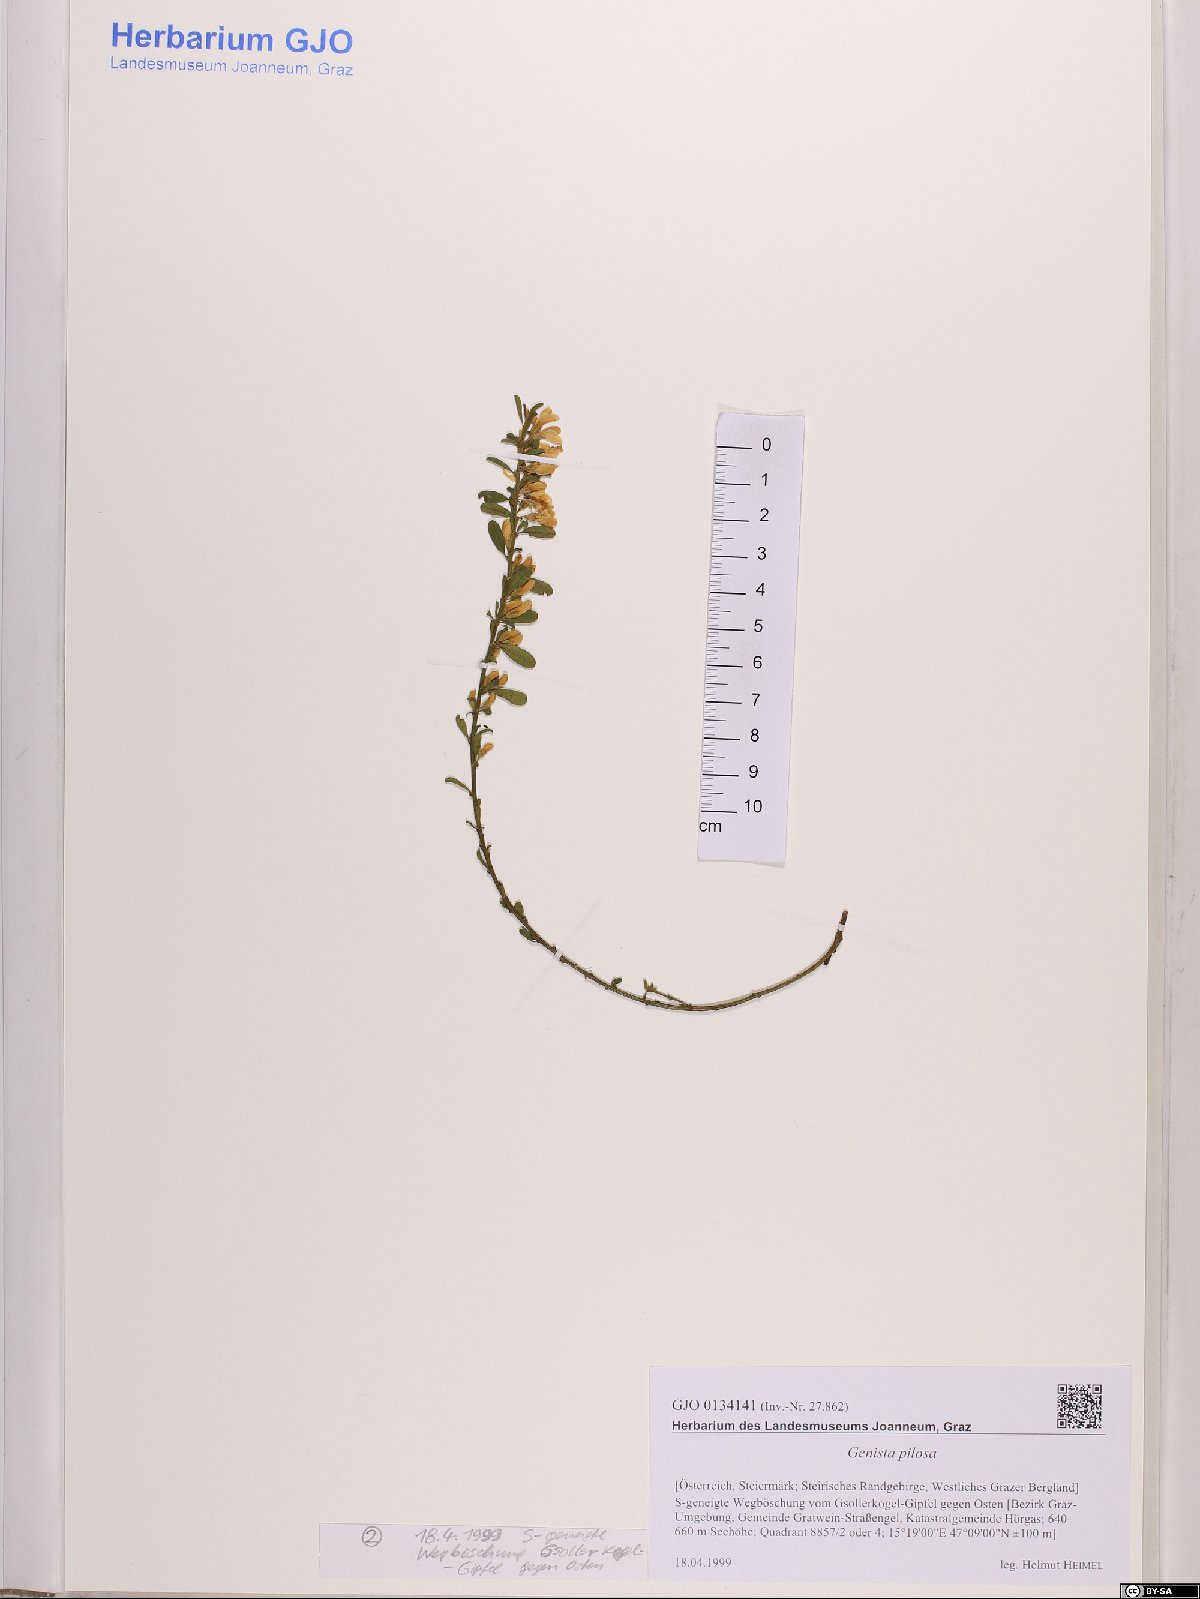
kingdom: Plantae
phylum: Tracheophyta
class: Magnoliopsida
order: Fabales
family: Fabaceae
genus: Genista
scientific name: Genista pilosa
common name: Hairy greenweed
